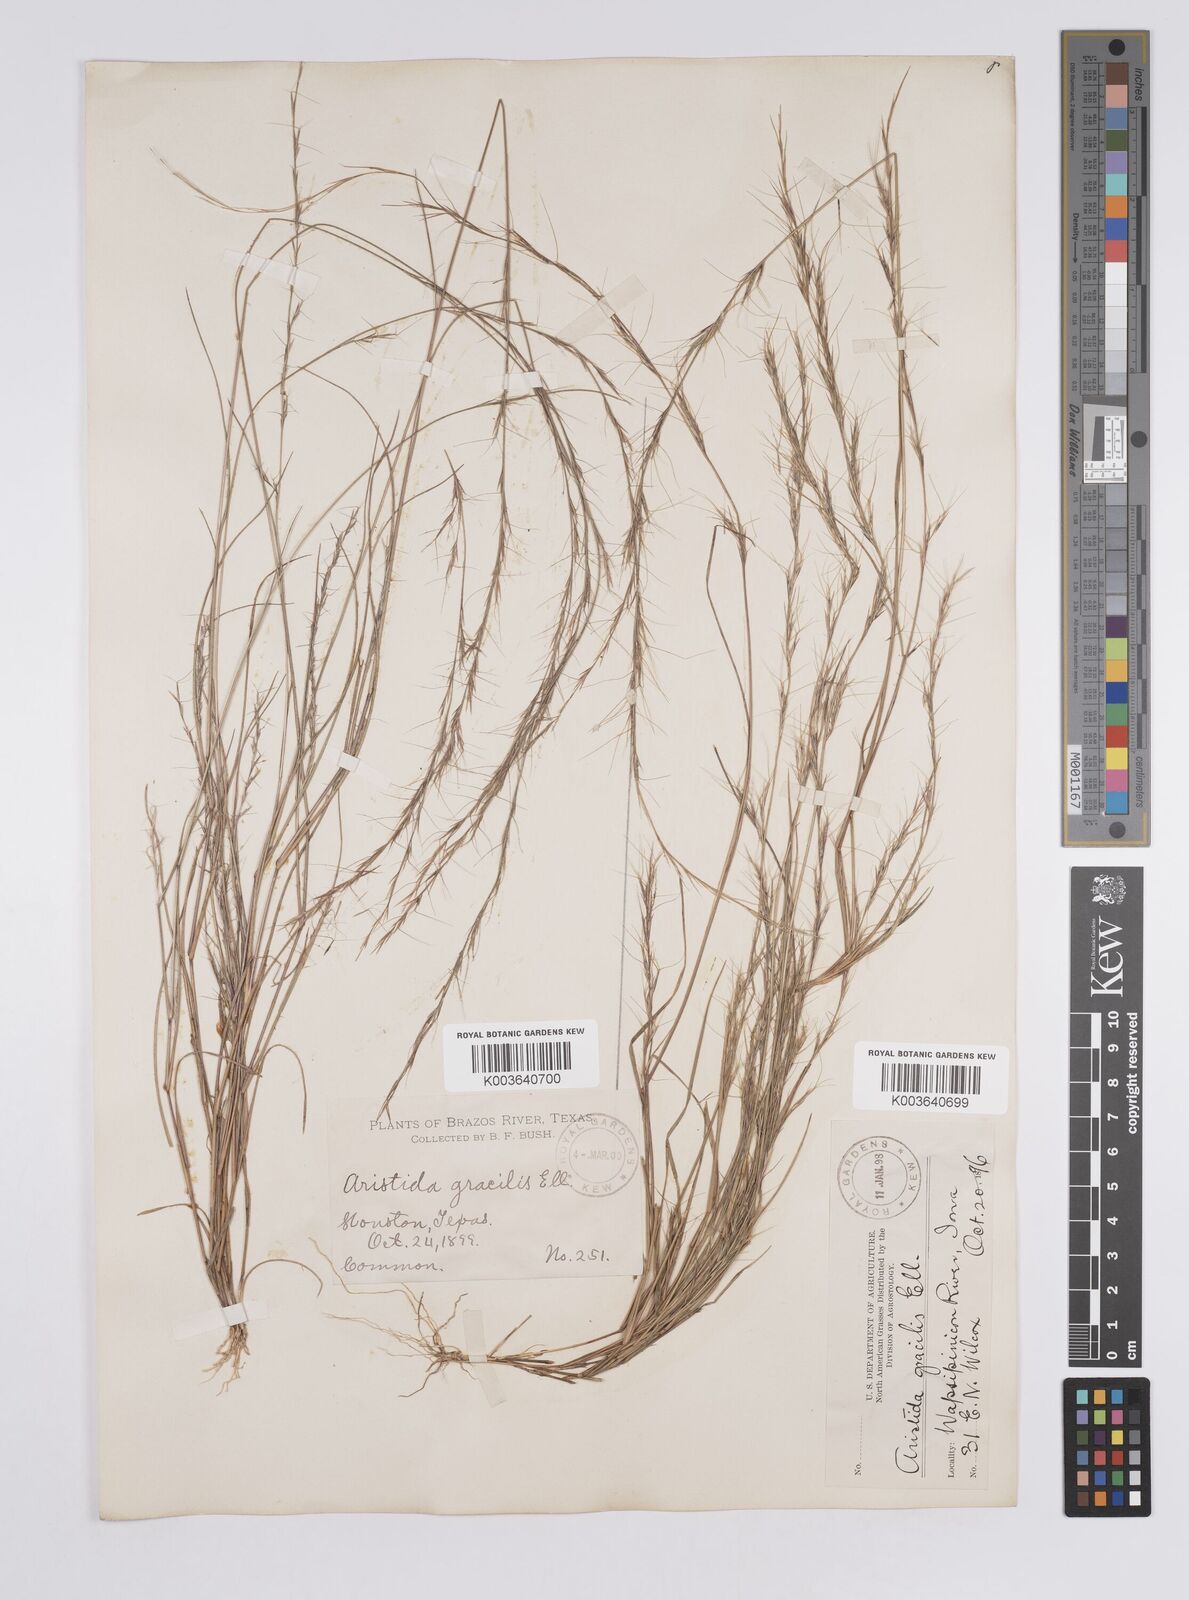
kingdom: Plantae
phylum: Tracheophyta
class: Liliopsida
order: Poales
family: Poaceae
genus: Aristida
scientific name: Aristida longespica
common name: Long-spiked triple-awned grass
